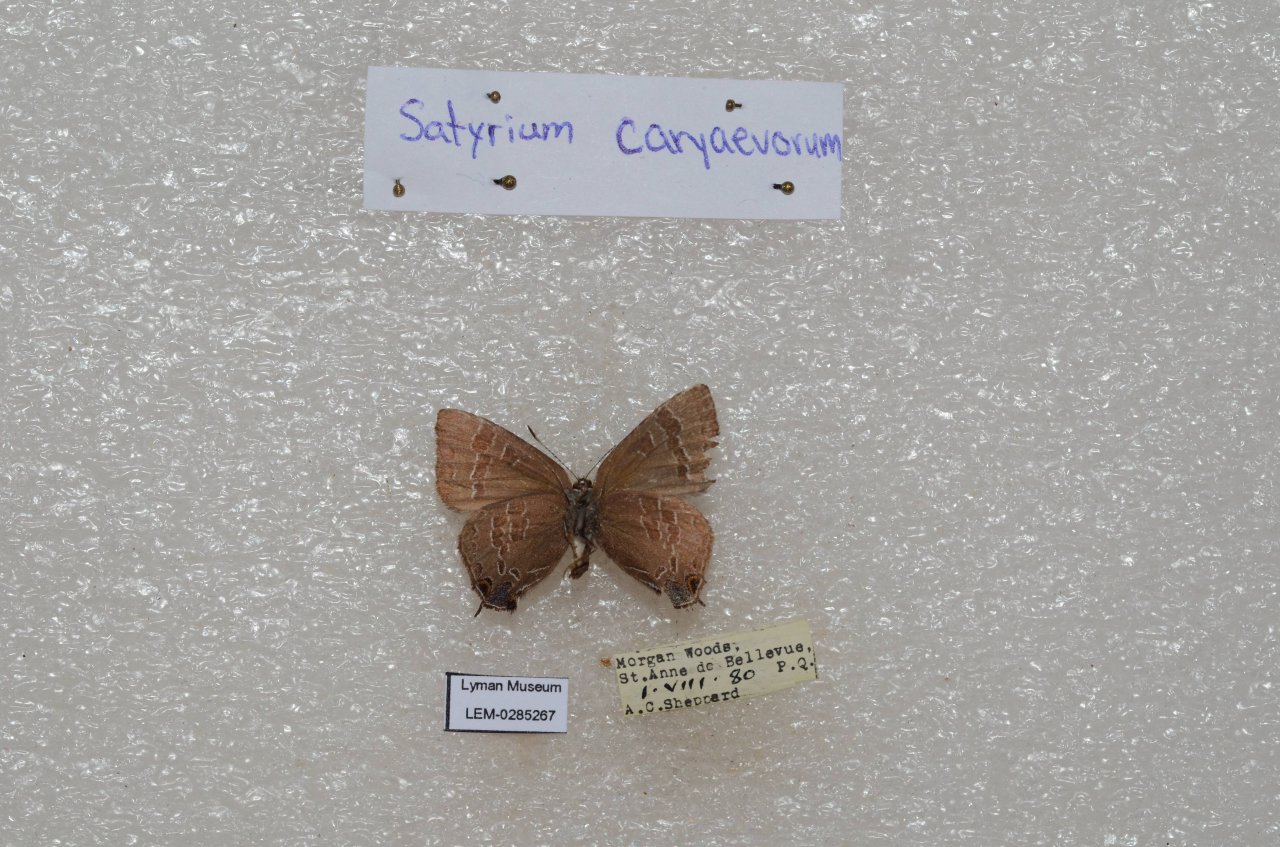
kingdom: Animalia
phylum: Arthropoda
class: Insecta
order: Lepidoptera
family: Lycaenidae
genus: Strymon
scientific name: Strymon caryaevorus
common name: Hickory Hairstreak
